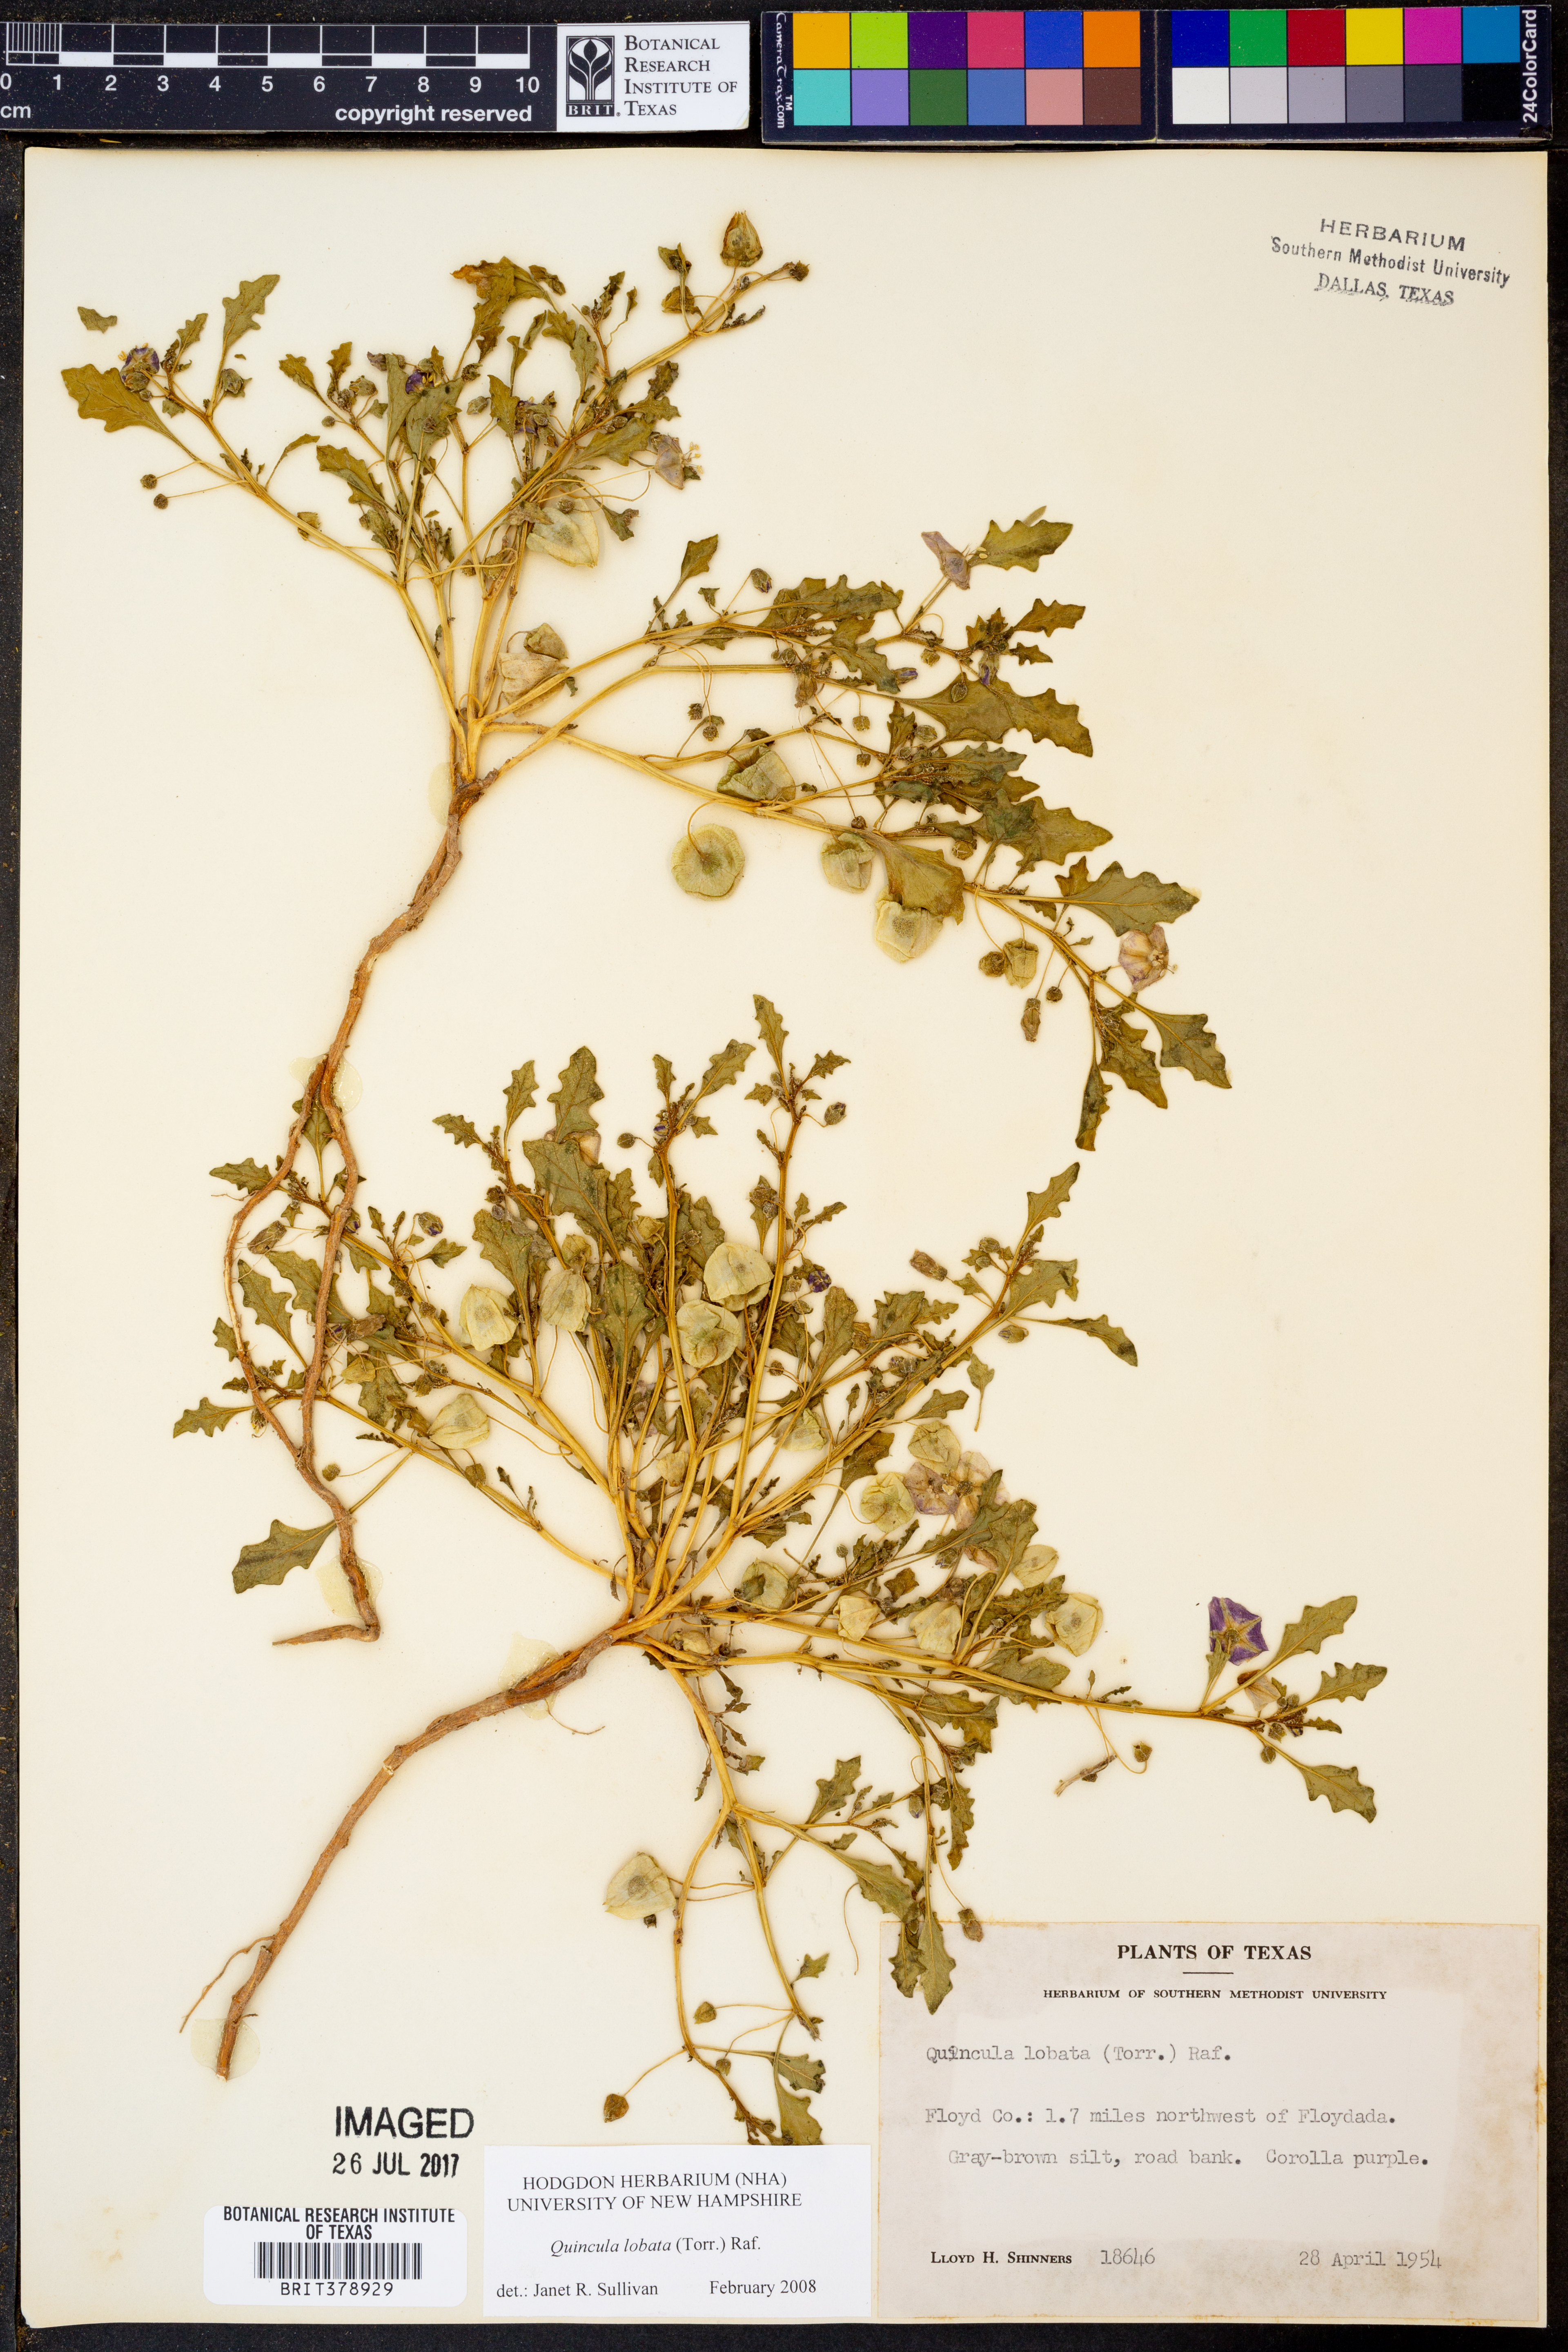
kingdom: Plantae
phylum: Tracheophyta
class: Magnoliopsida
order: Solanales
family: Solanaceae
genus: Quincula
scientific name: Quincula lobata
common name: Purple-ground-cherry
